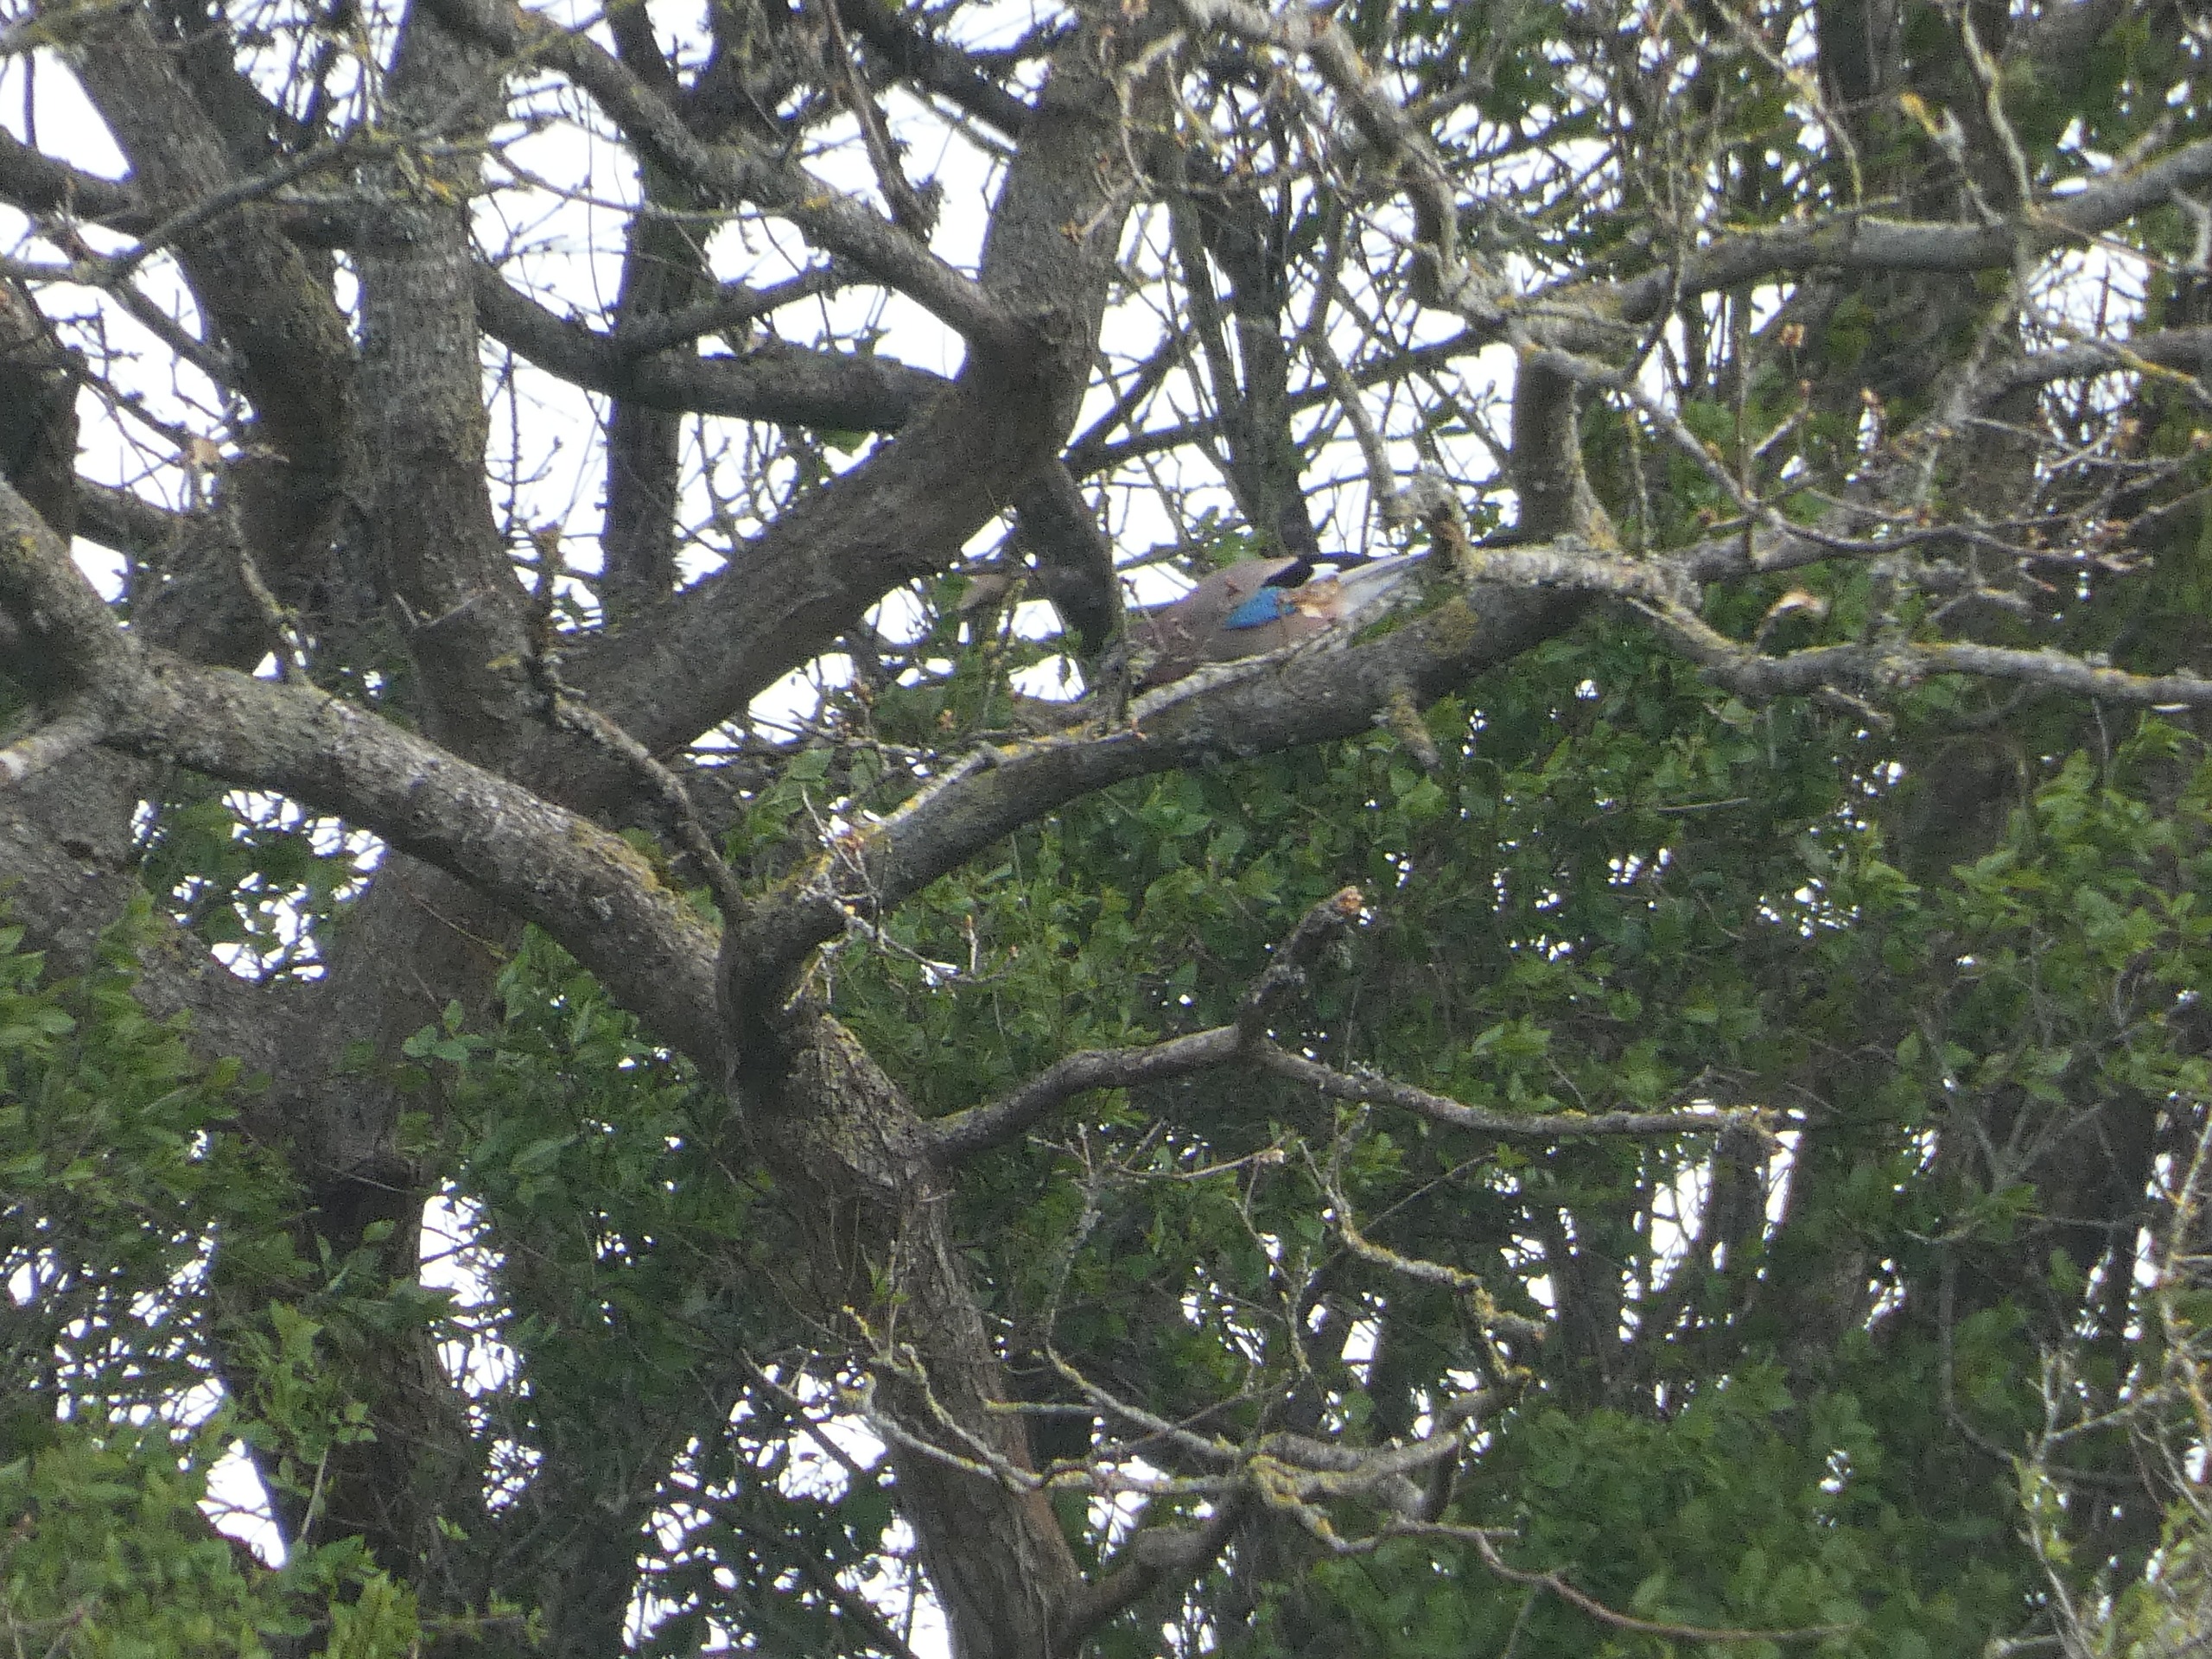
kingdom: Animalia
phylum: Chordata
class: Aves
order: Passeriformes
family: Corvidae
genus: Garrulus
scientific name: Garrulus glandarius
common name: Skovskade
